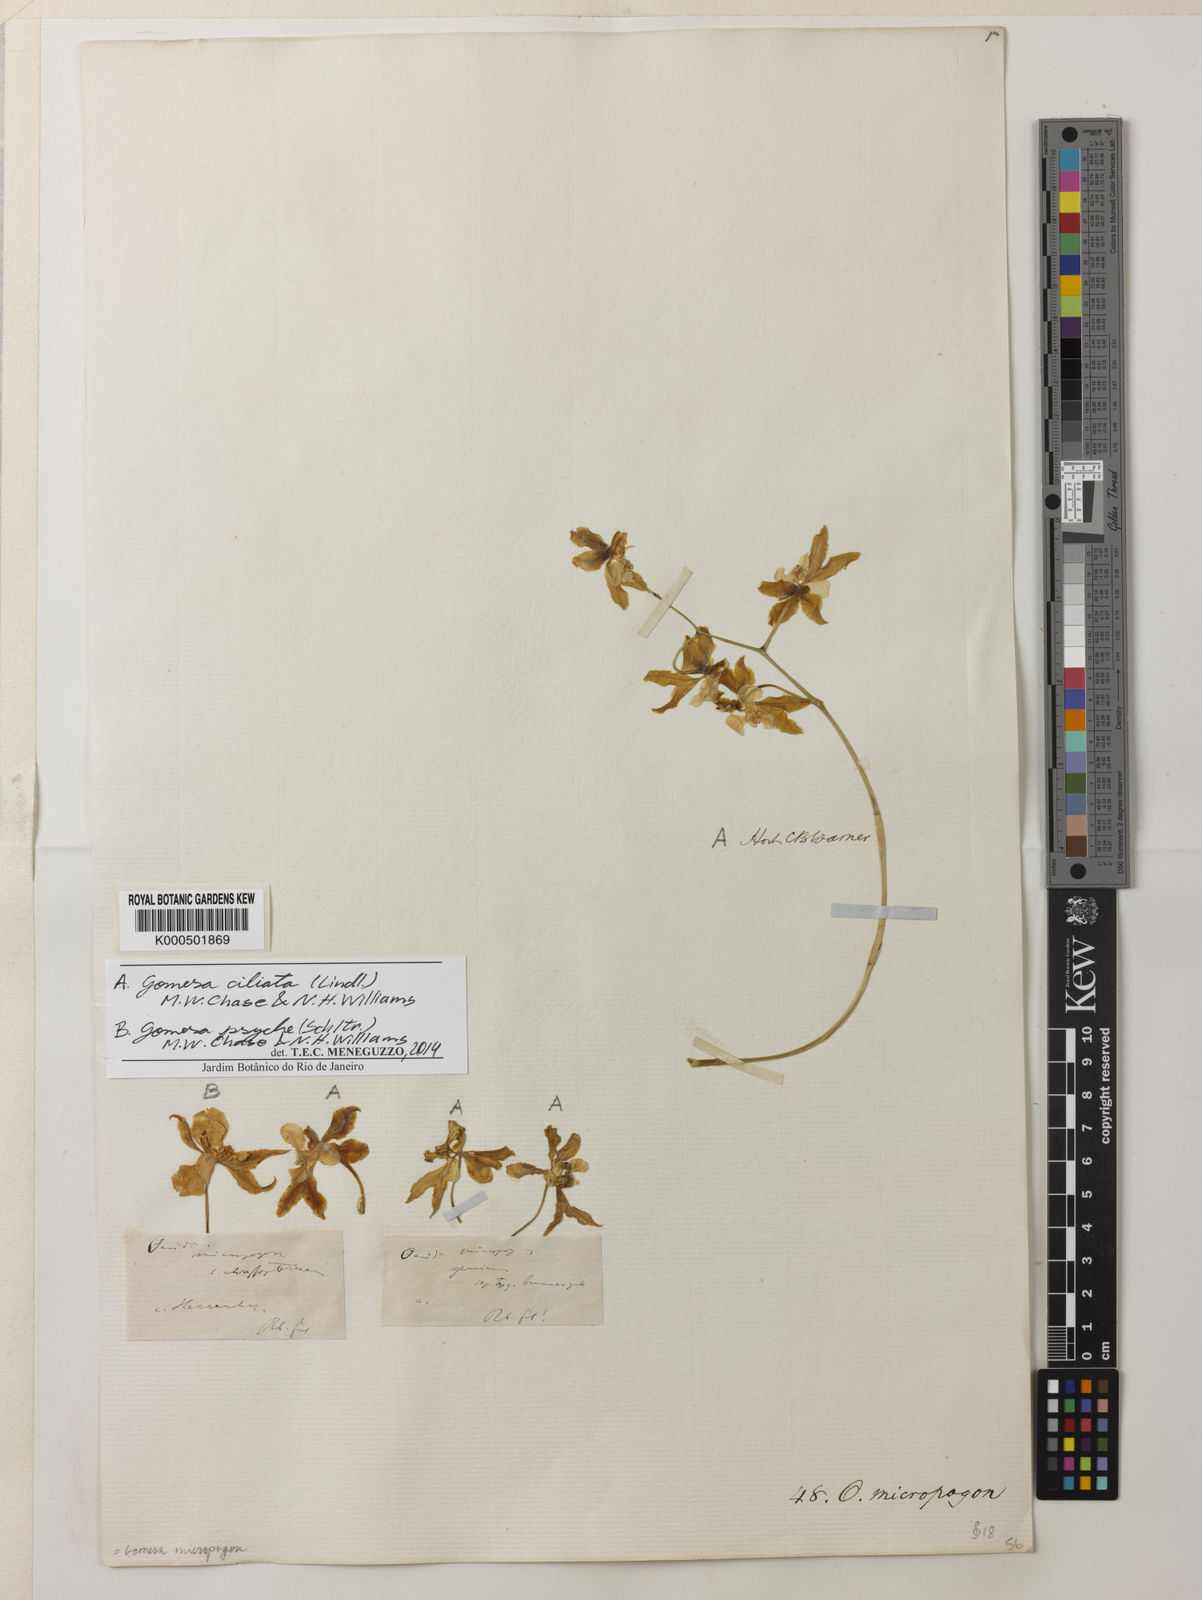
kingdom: Plantae
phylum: Tracheophyta
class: Liliopsida
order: Asparagales
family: Orchidaceae
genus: Gomesa
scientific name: Gomesa ciliata
